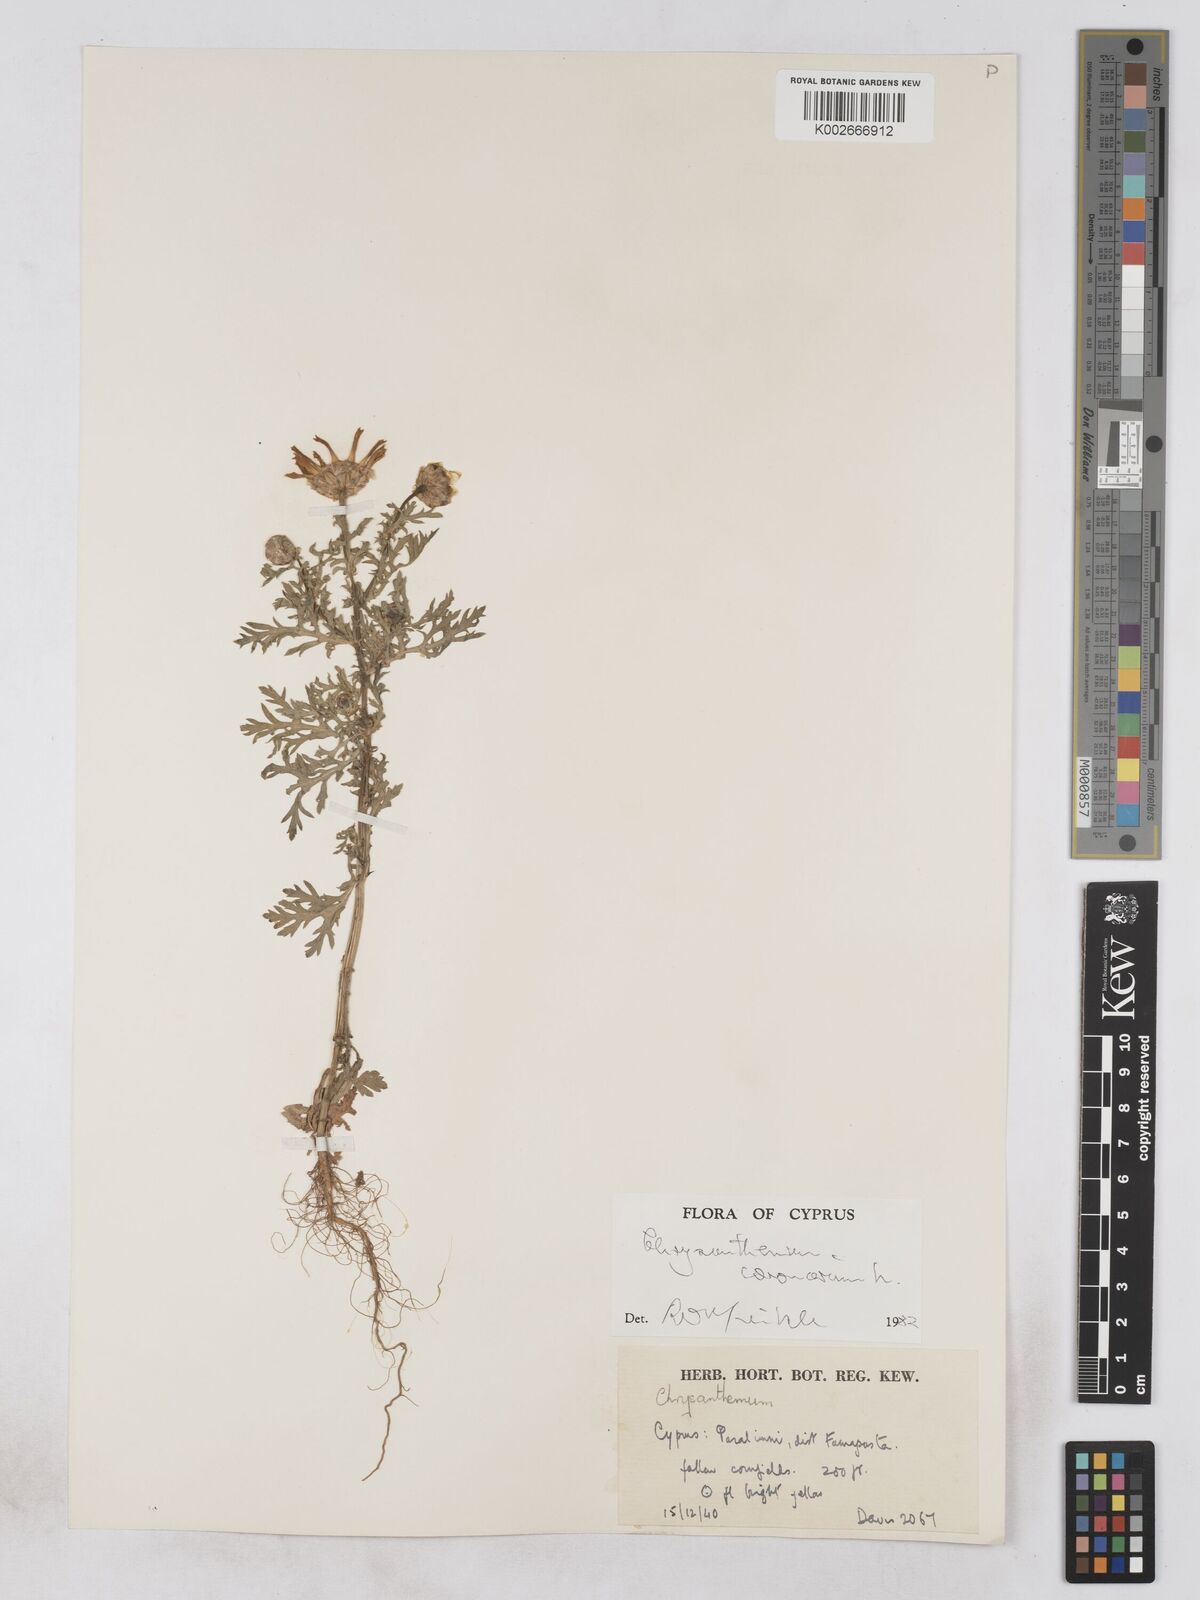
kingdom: Plantae
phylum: Tracheophyta
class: Magnoliopsida
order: Asterales
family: Asteraceae
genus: Glebionis
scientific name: Glebionis coronaria
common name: Crowndaisy
